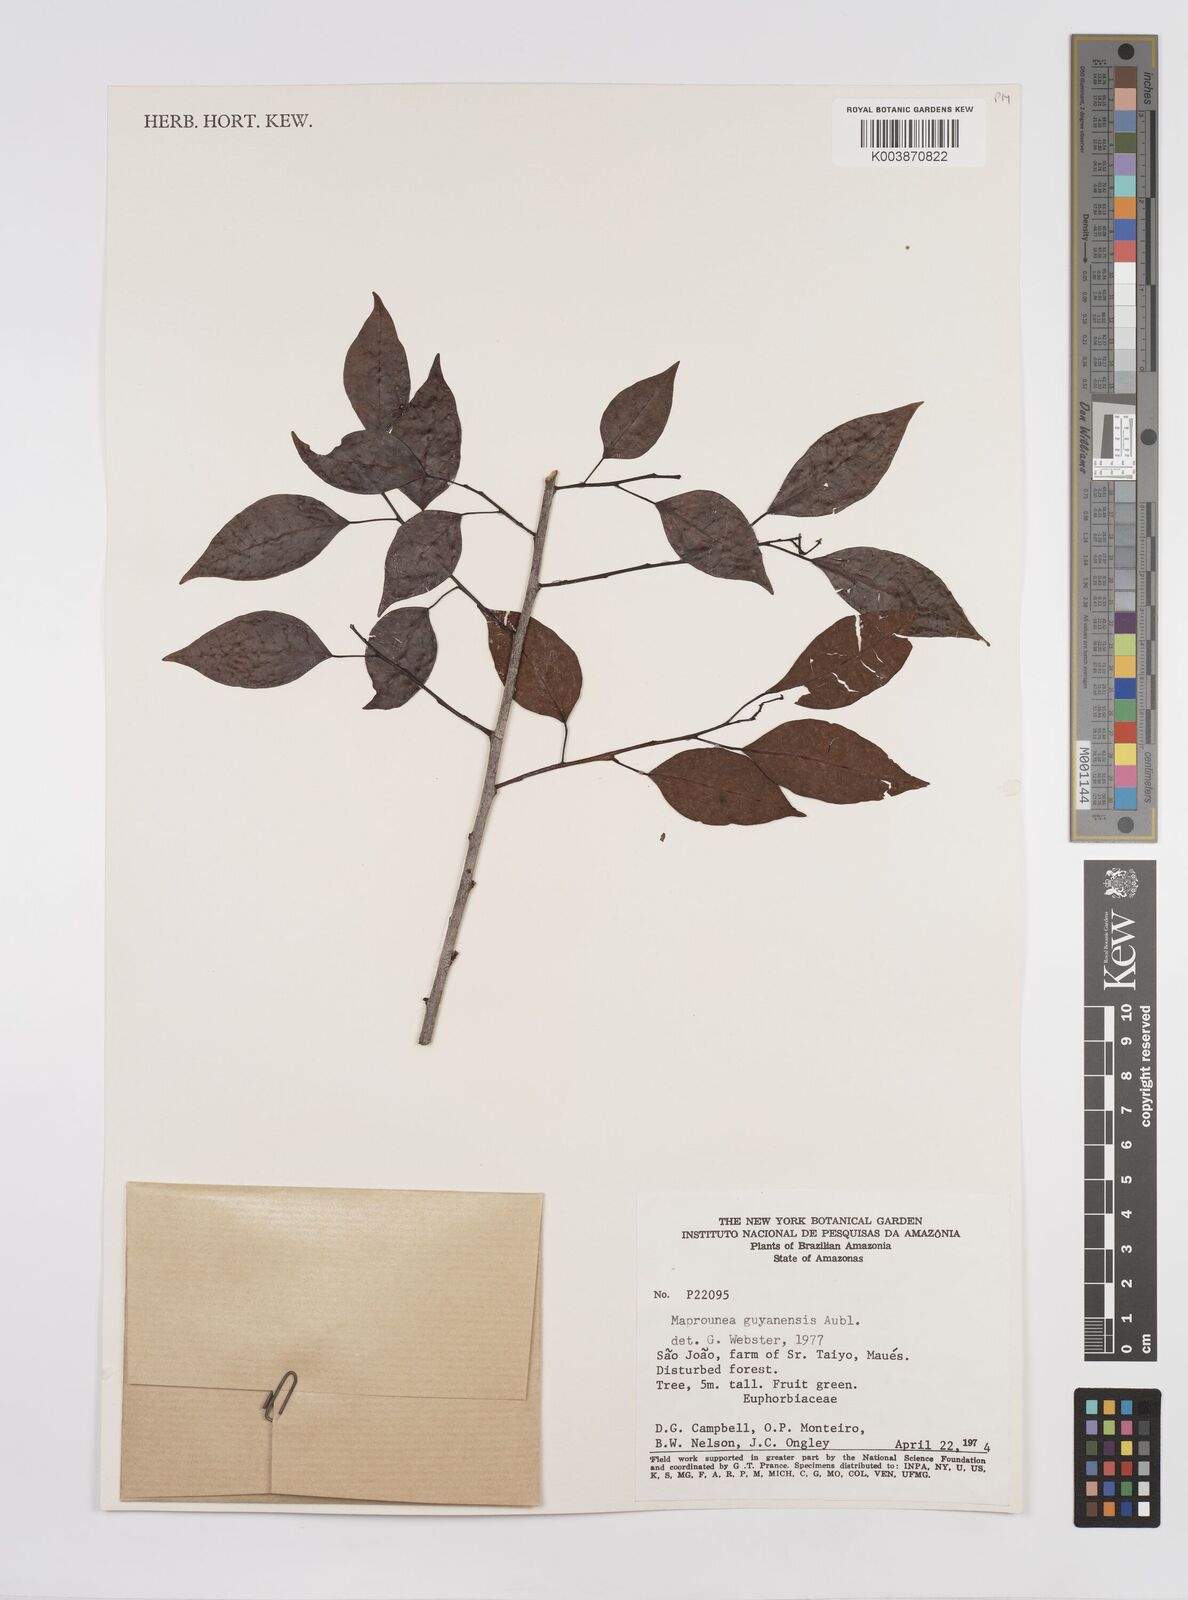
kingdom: Plantae
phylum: Tracheophyta
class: Magnoliopsida
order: Malpighiales
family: Euphorbiaceae
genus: Maprounea
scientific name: Maprounea guianensis
